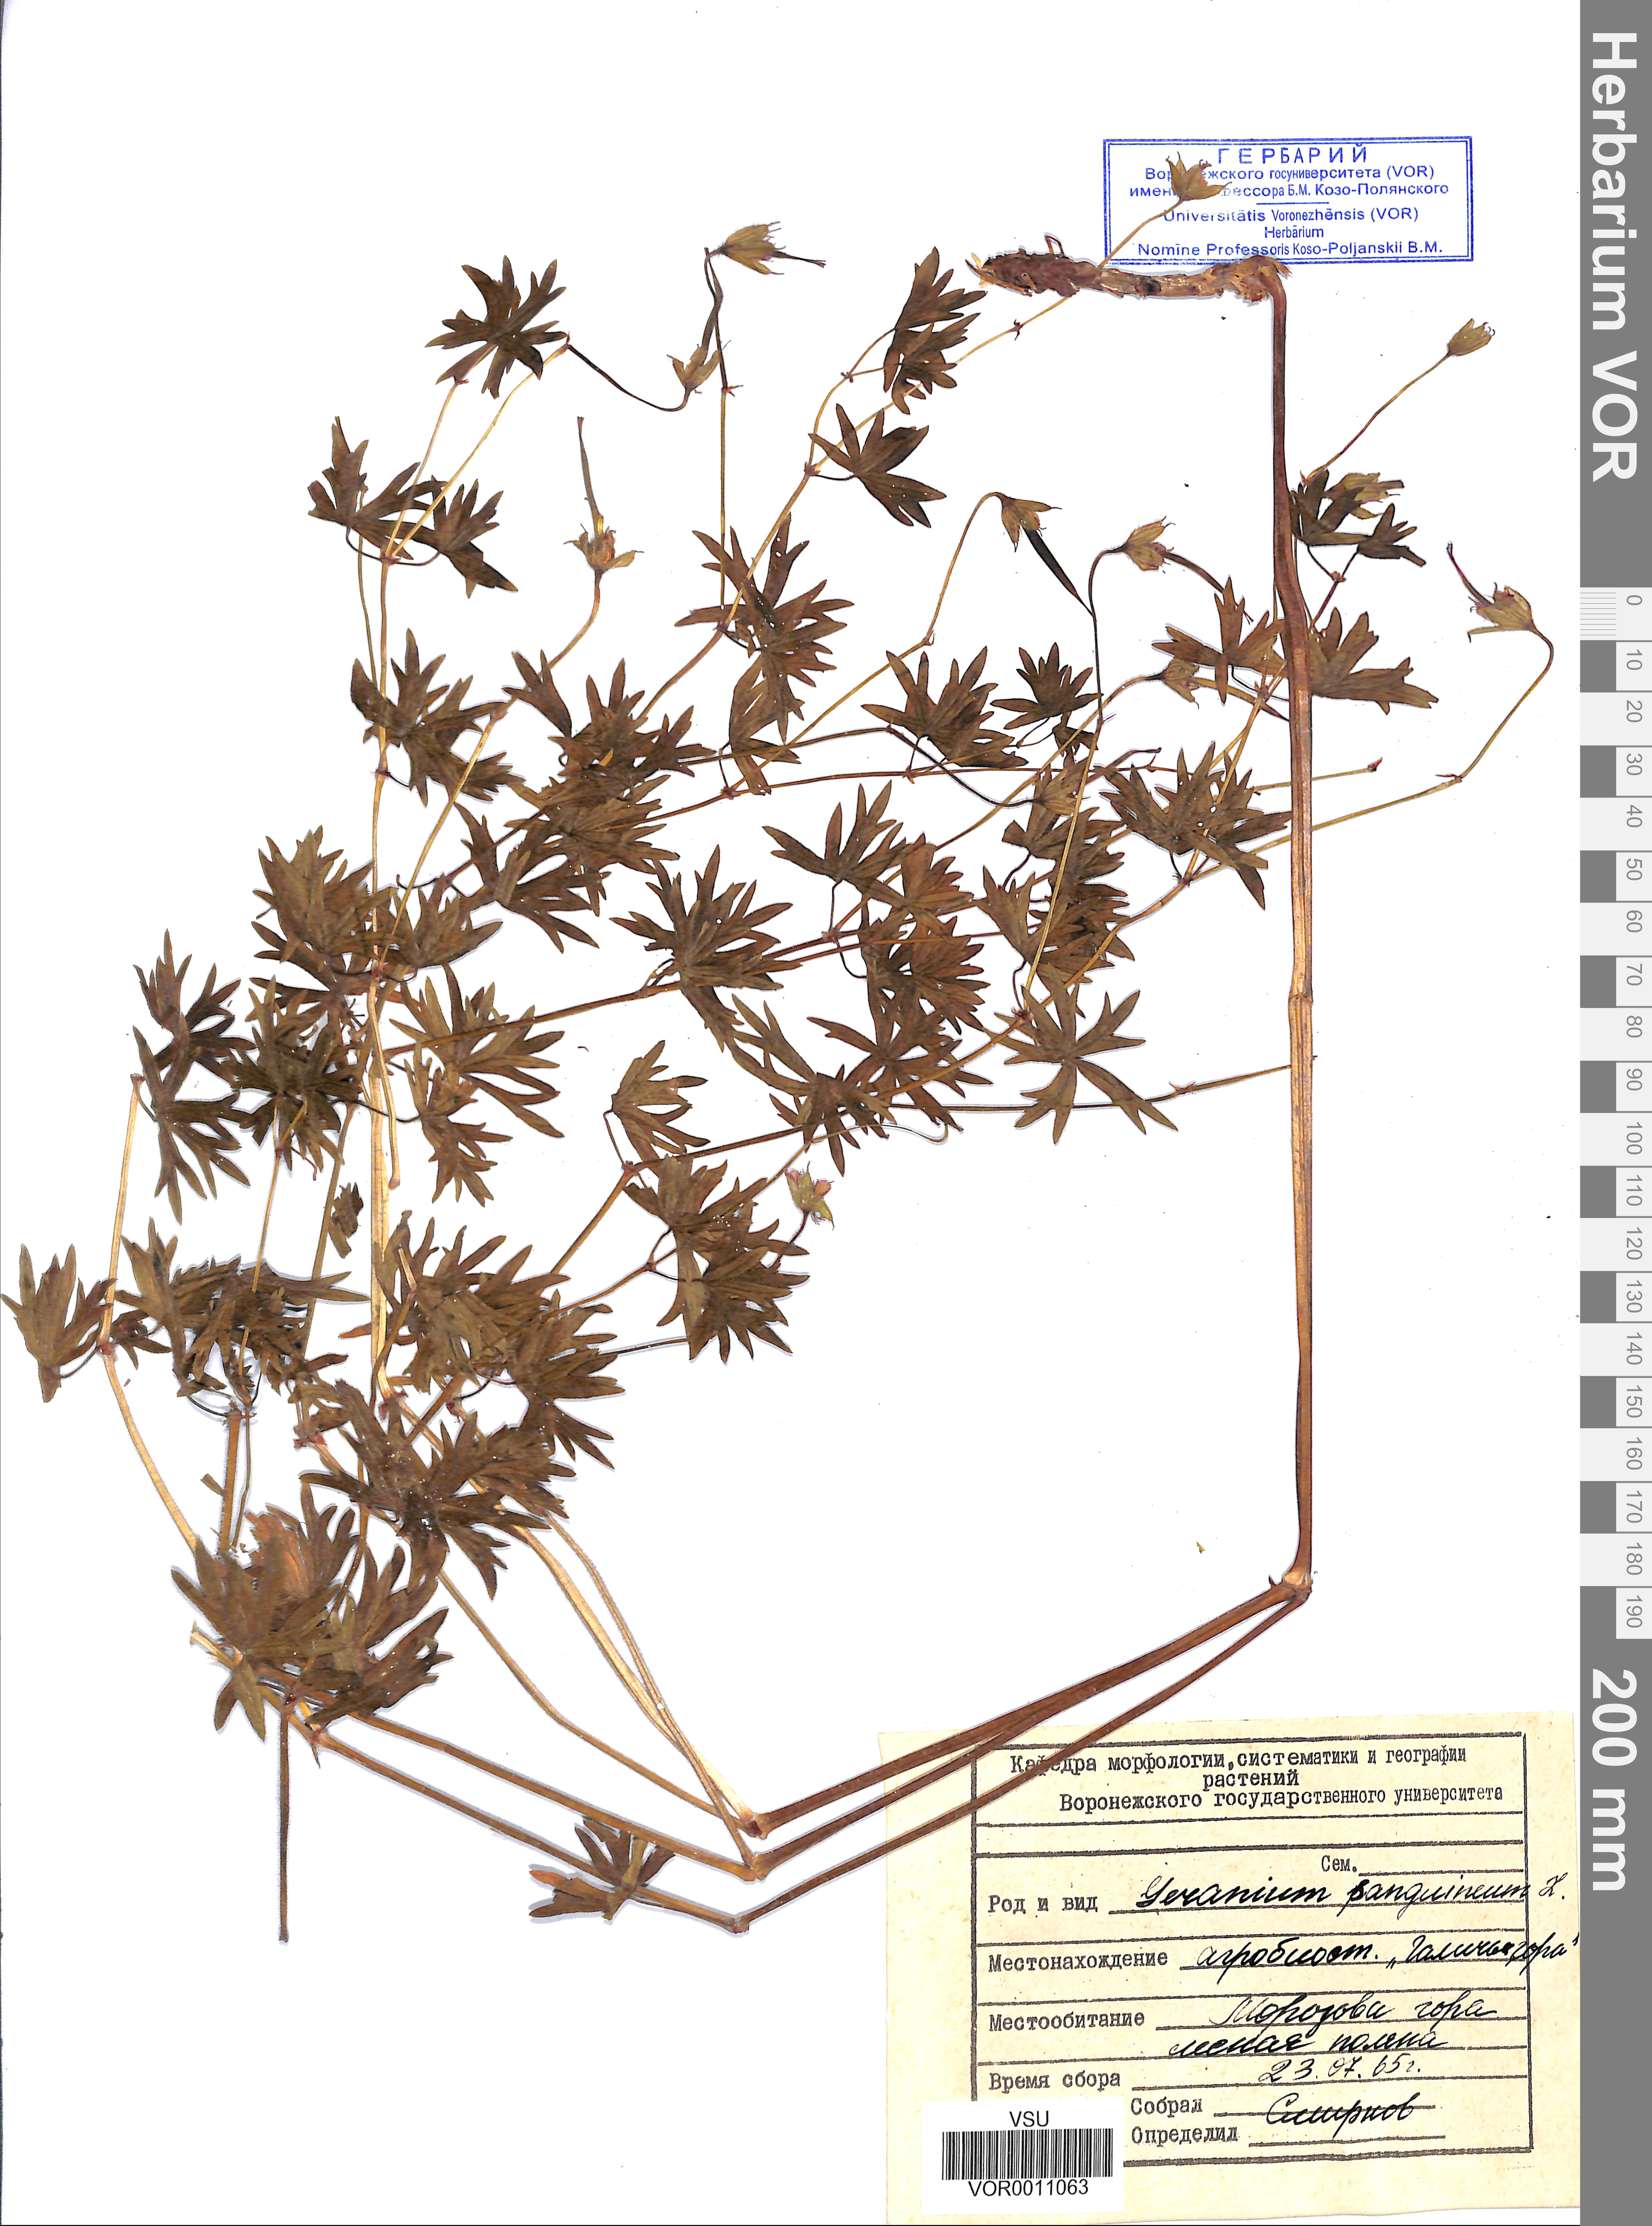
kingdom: Plantae
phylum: Tracheophyta
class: Magnoliopsida
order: Geraniales
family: Geraniaceae
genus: Geranium
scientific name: Geranium sanguineum
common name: Bloody crane's-bill
